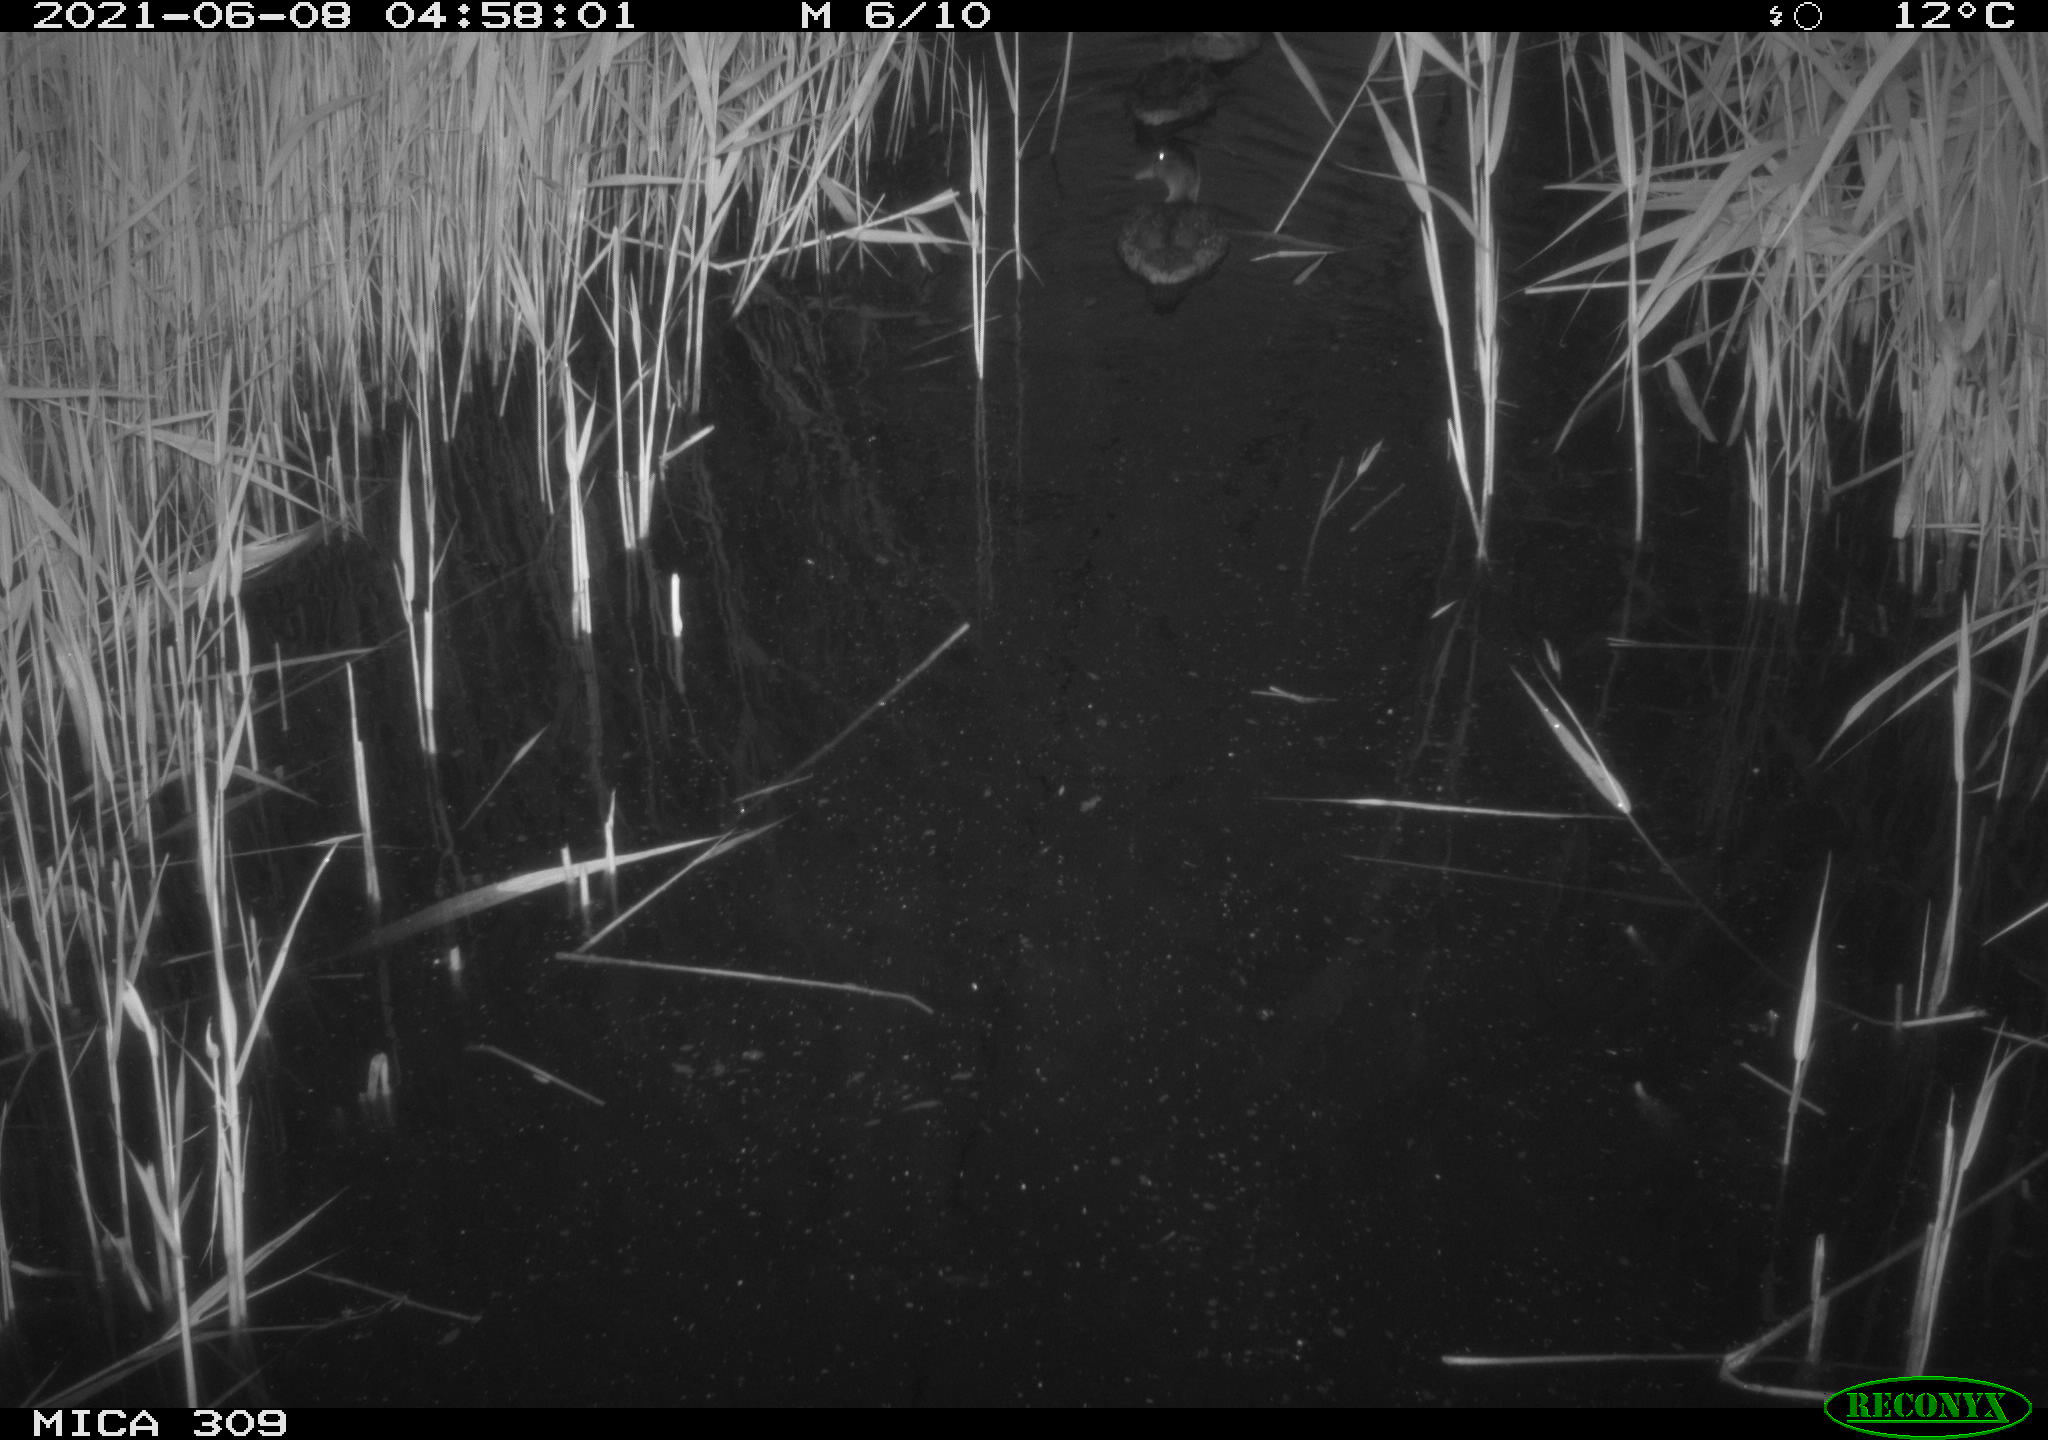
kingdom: Animalia
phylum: Chordata
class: Aves
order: Anseriformes
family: Anatidae
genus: Anas
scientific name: Anas platyrhynchos
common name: Mallard
